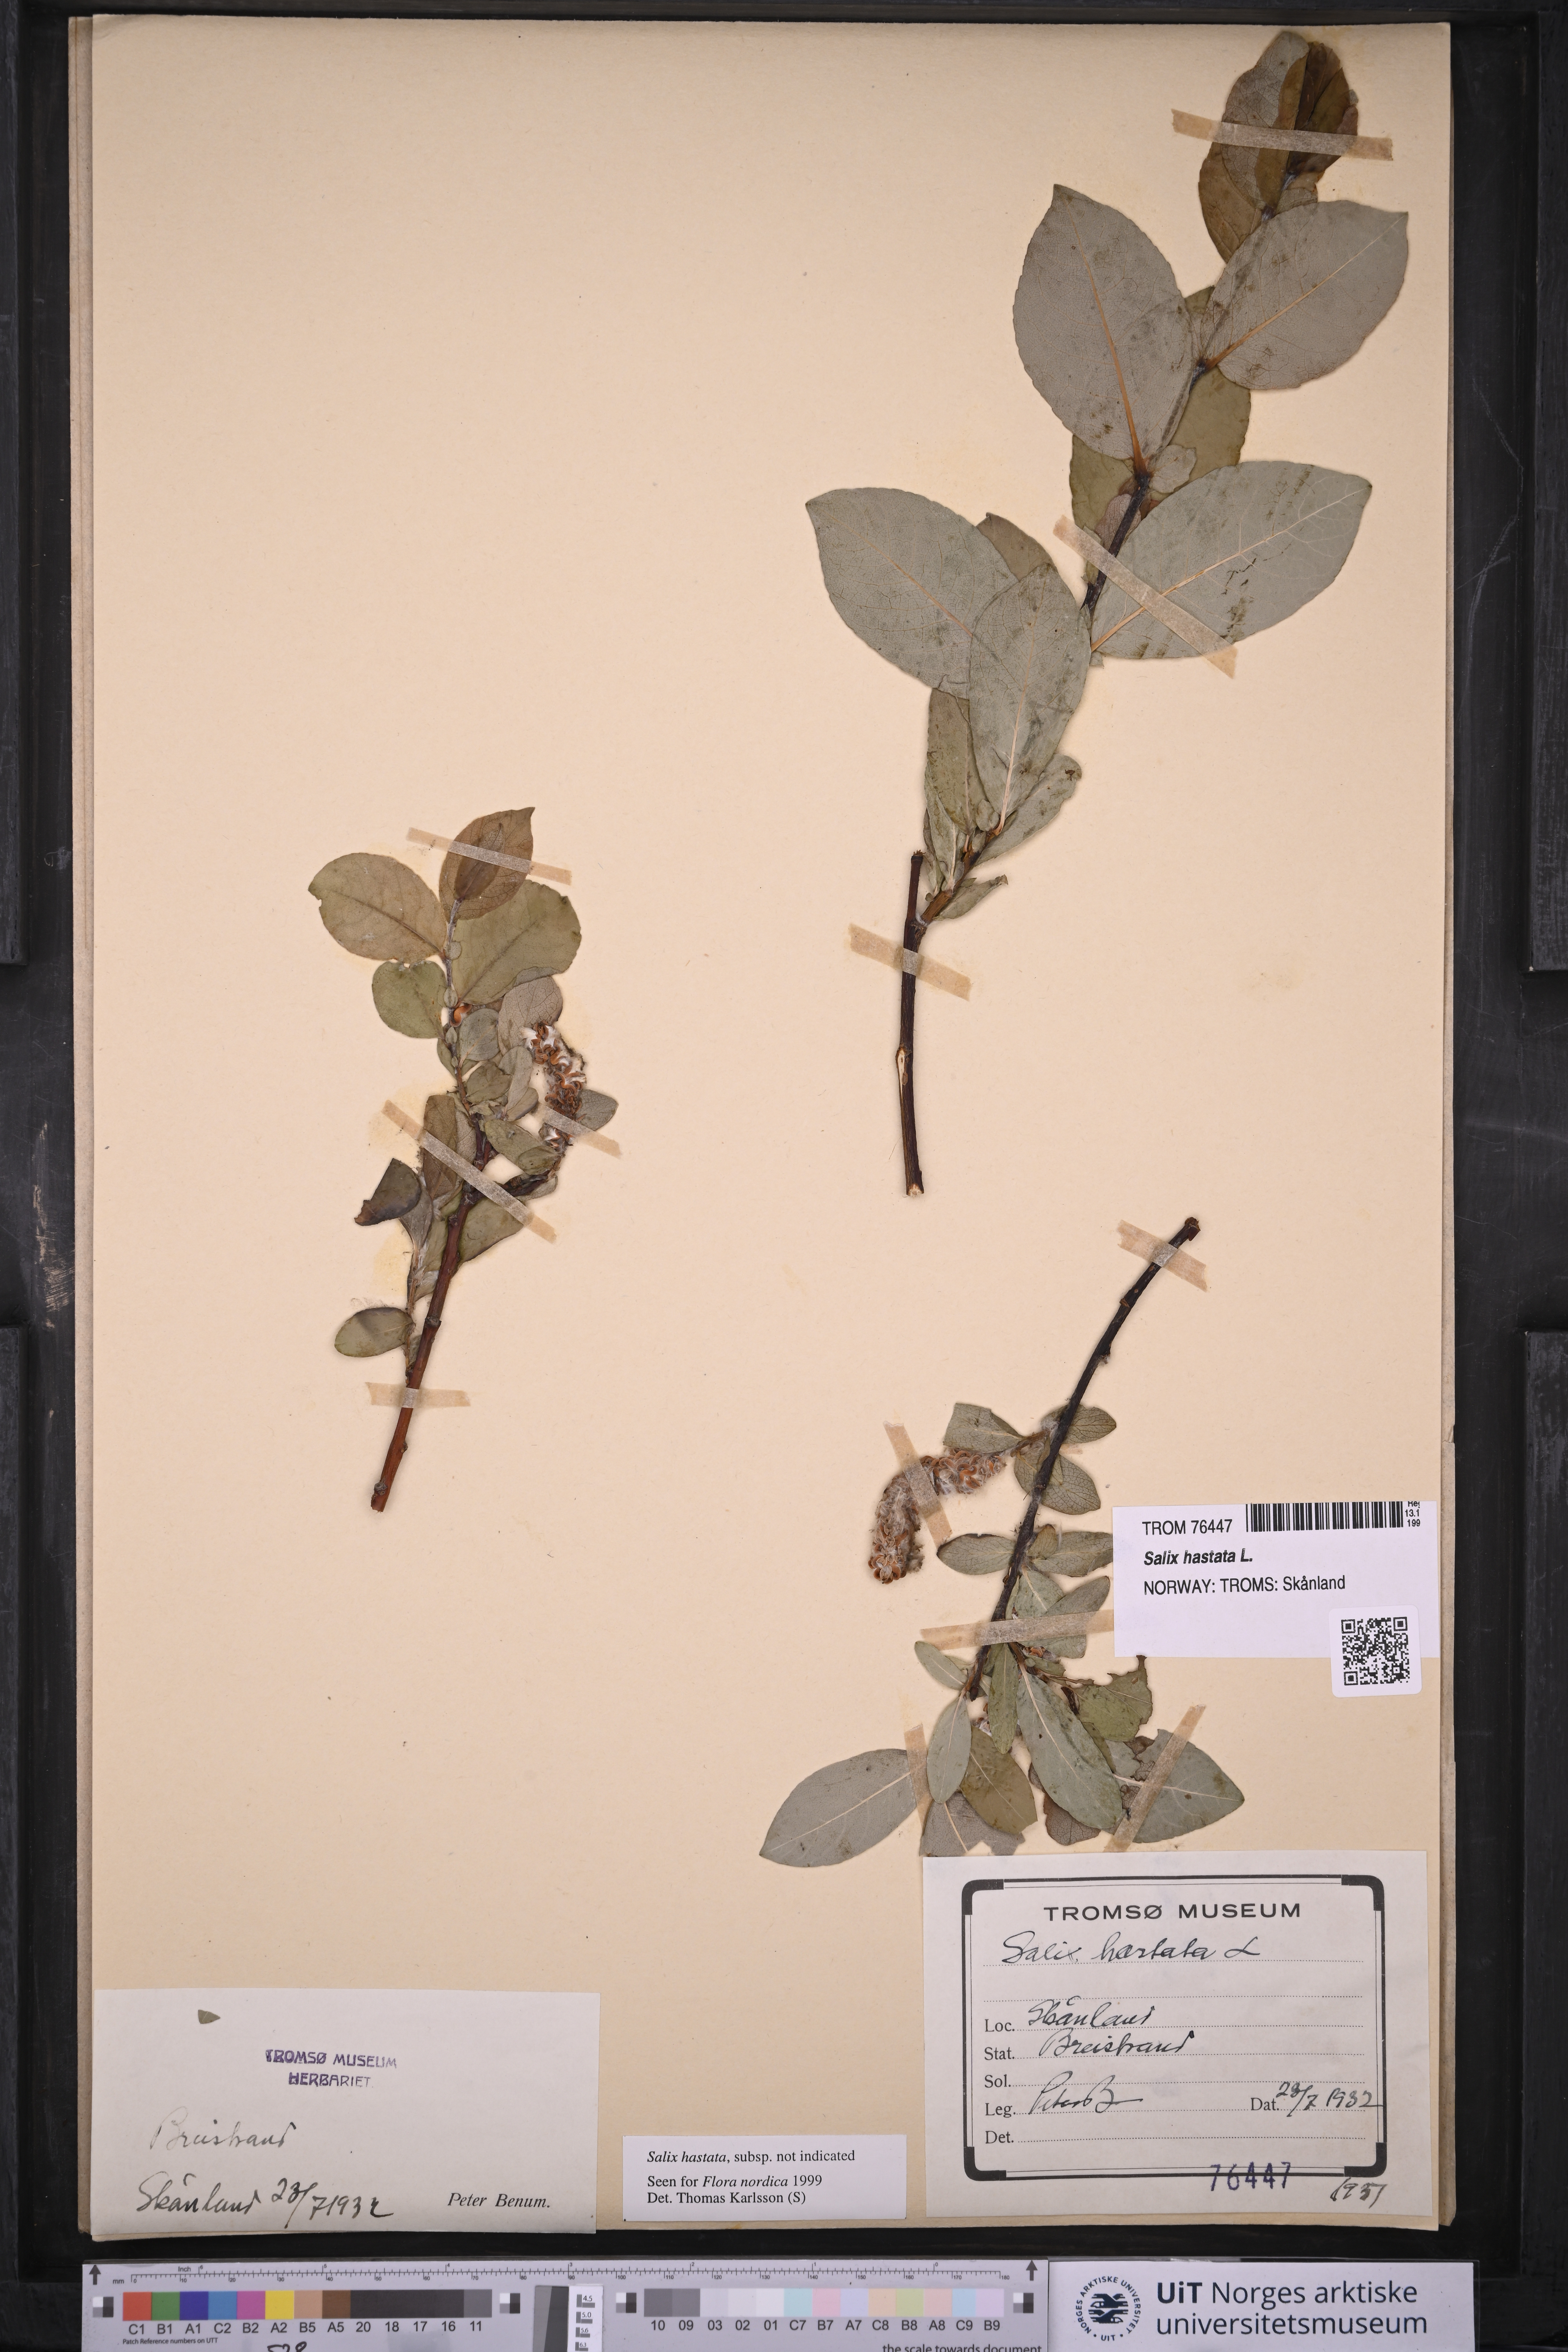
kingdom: Plantae
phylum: Tracheophyta
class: Magnoliopsida
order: Malpighiales
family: Salicaceae
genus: Salix
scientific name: Salix hastata
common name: Halberd willow
